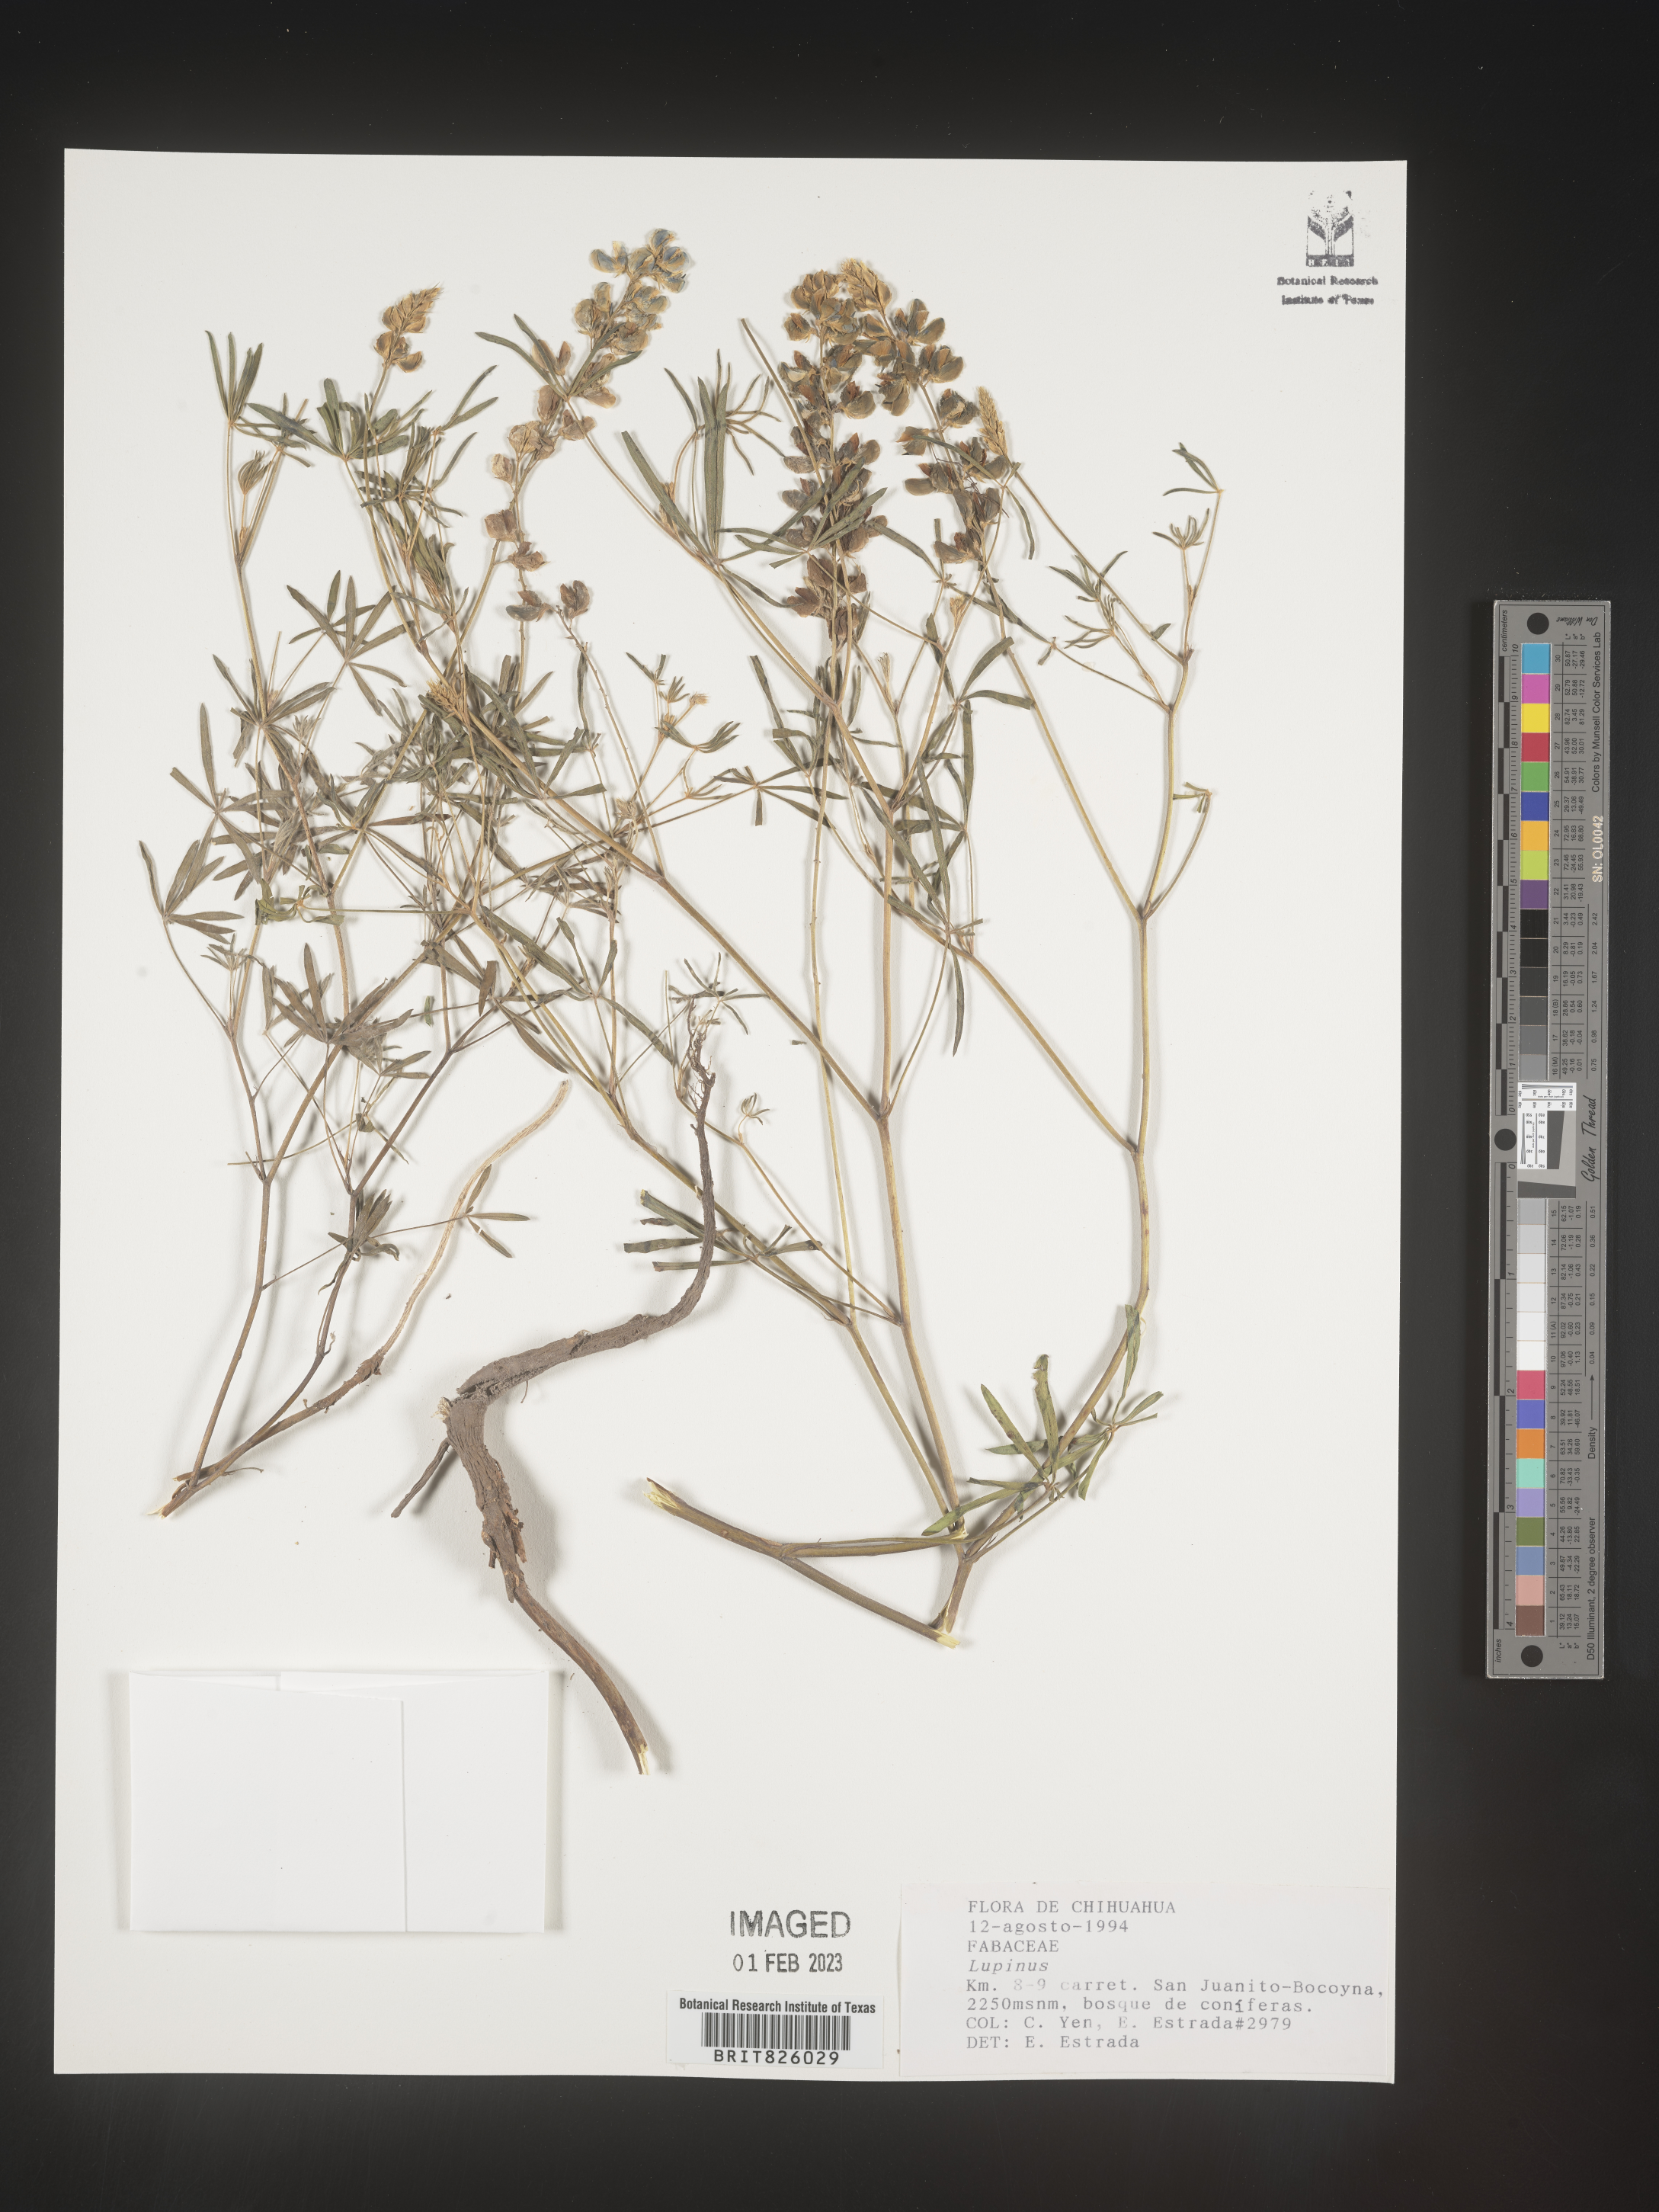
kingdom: Plantae
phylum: Tracheophyta
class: Magnoliopsida
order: Fabales
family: Fabaceae
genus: Lupinus
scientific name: Lupinus
